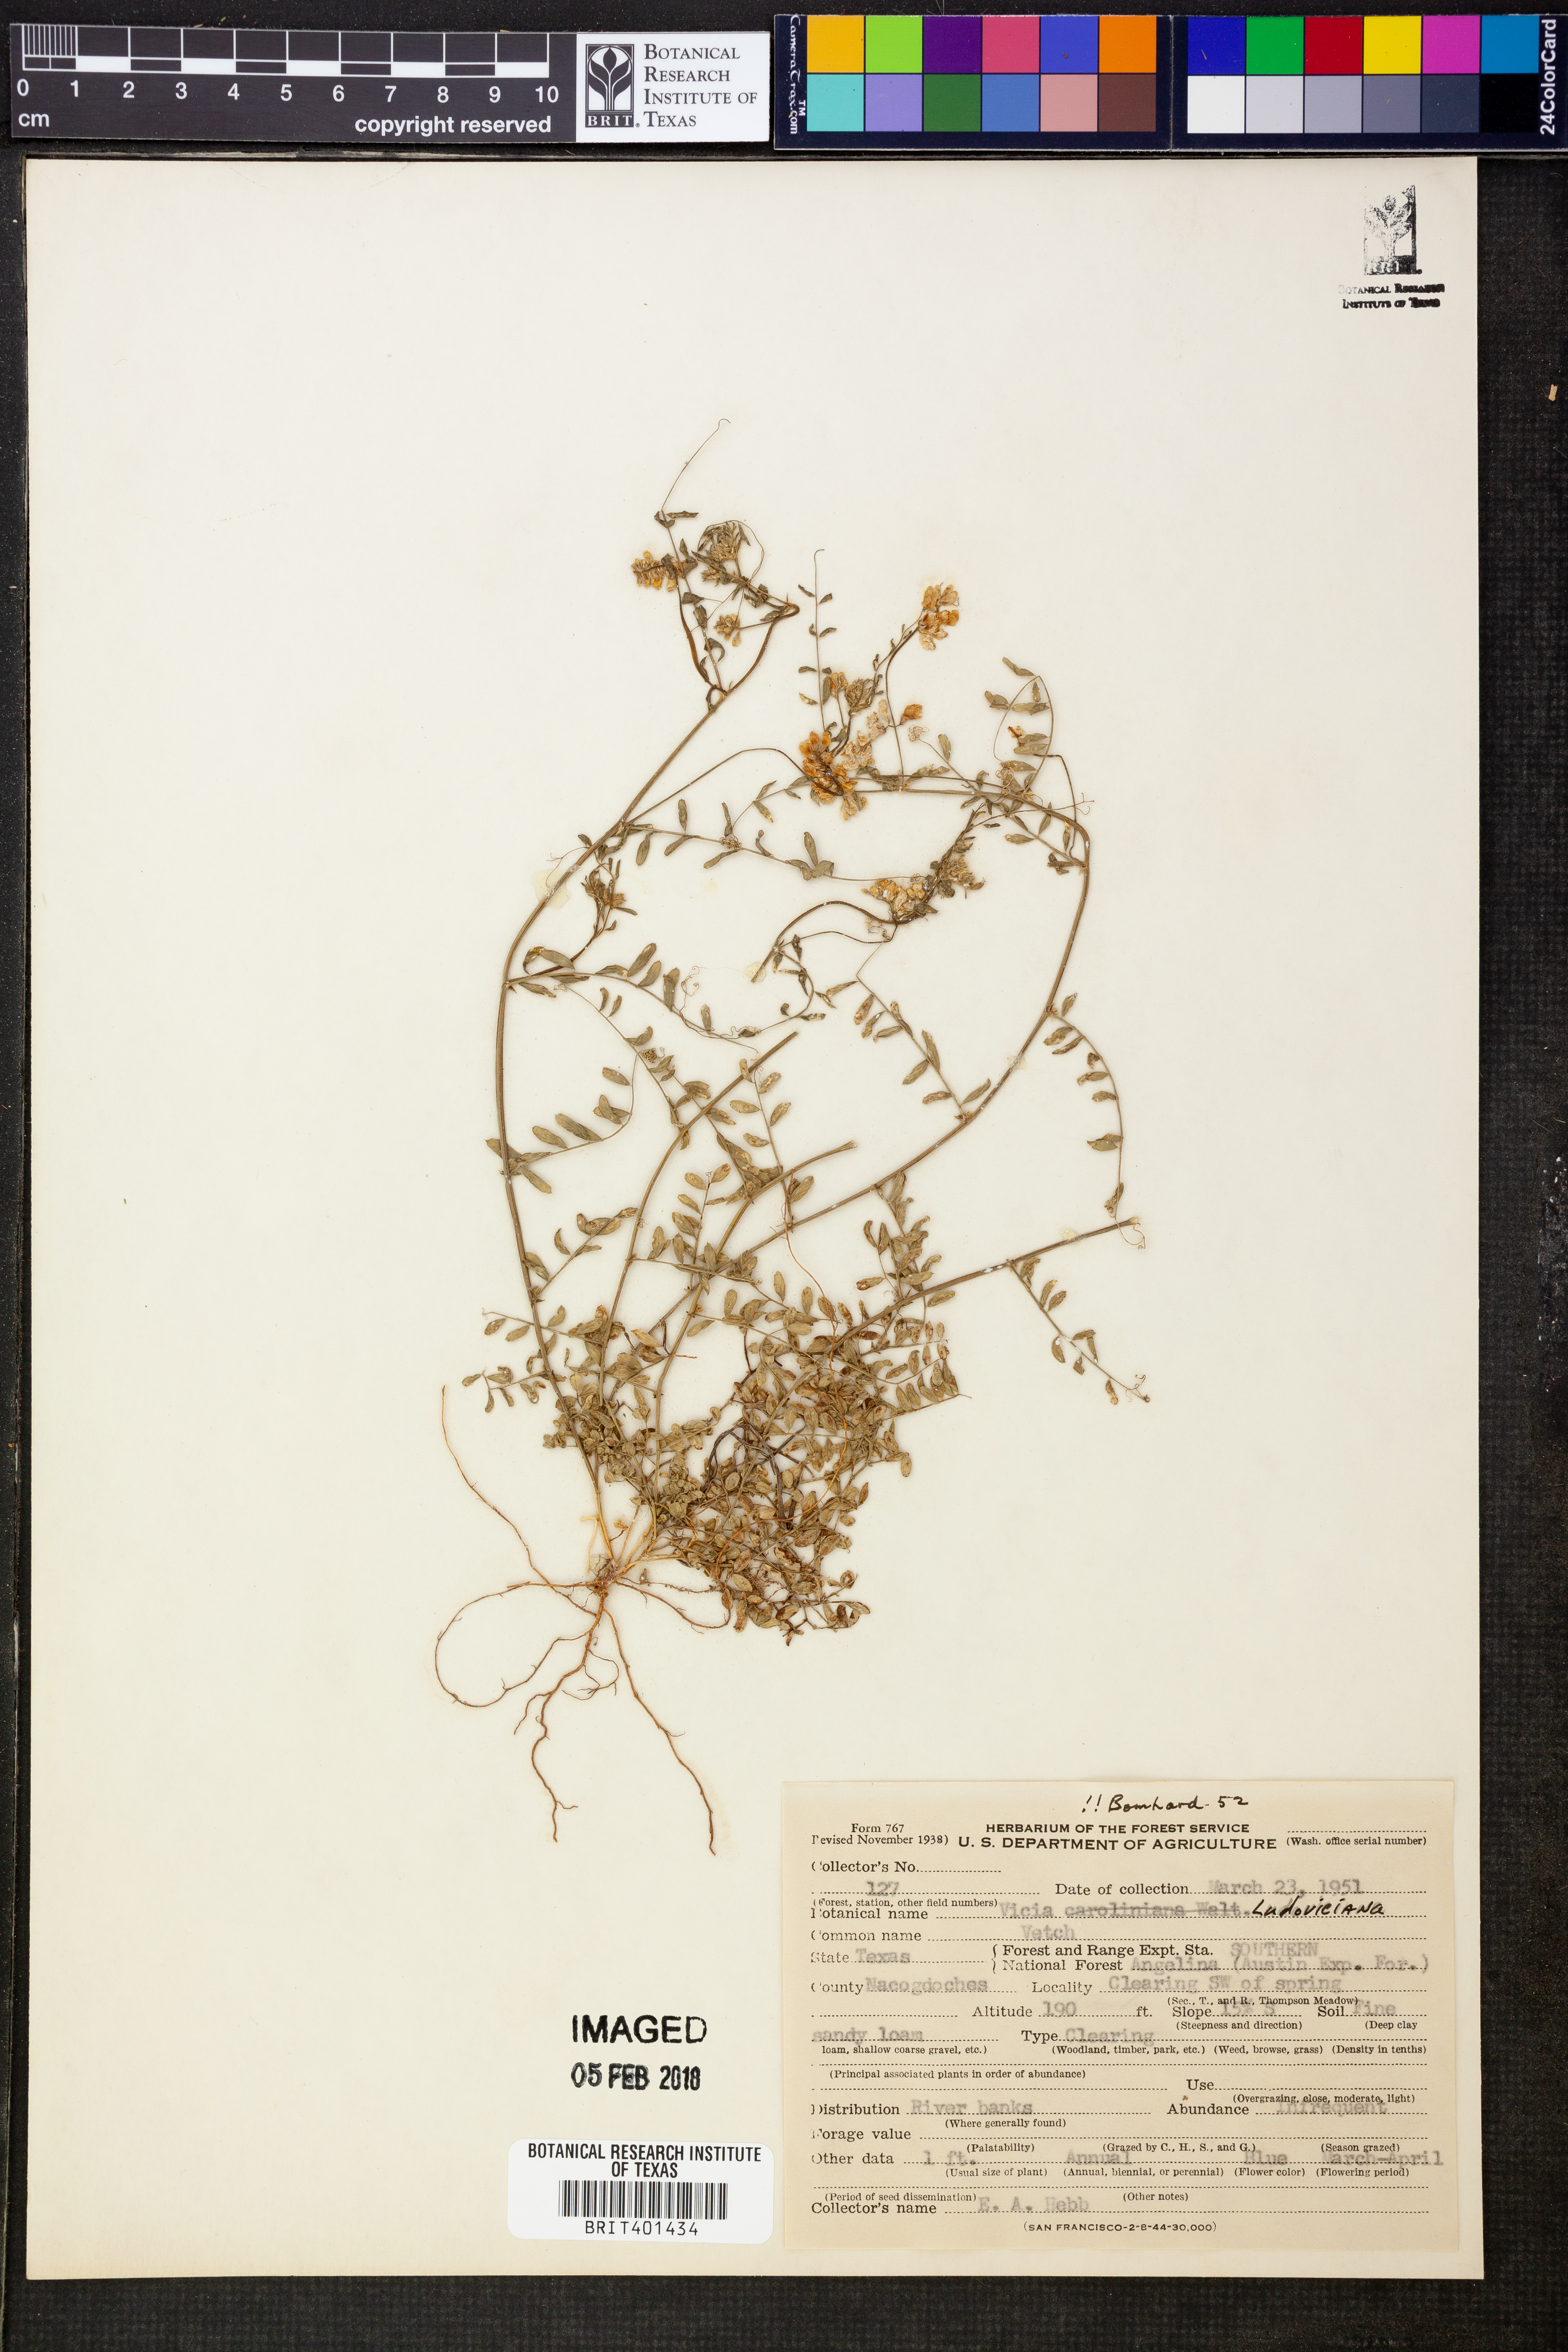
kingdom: Plantae
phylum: Tracheophyta
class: Magnoliopsida
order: Fabales
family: Fabaceae
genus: Vicia
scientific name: Vicia ludoviciana
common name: Louisiana vetch
